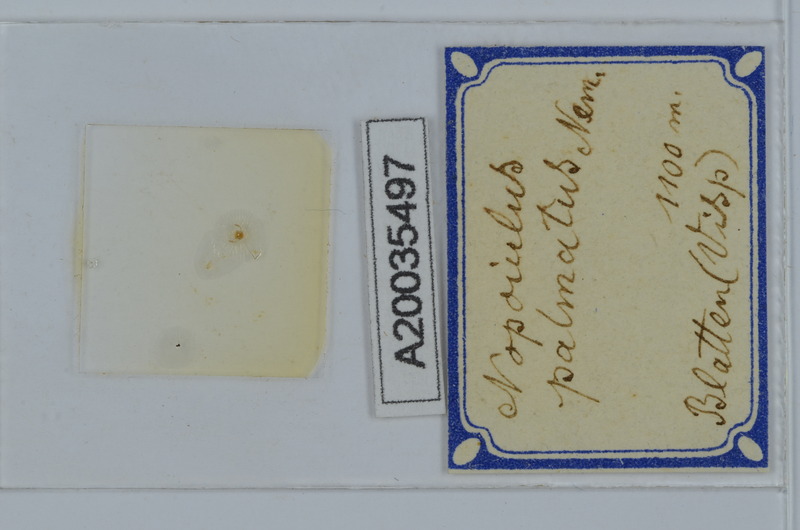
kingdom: Animalia
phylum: Arthropoda
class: Diplopoda
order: Julida
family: Blaniulidae
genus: Nopoiulus
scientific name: Nopoiulus palmatus
